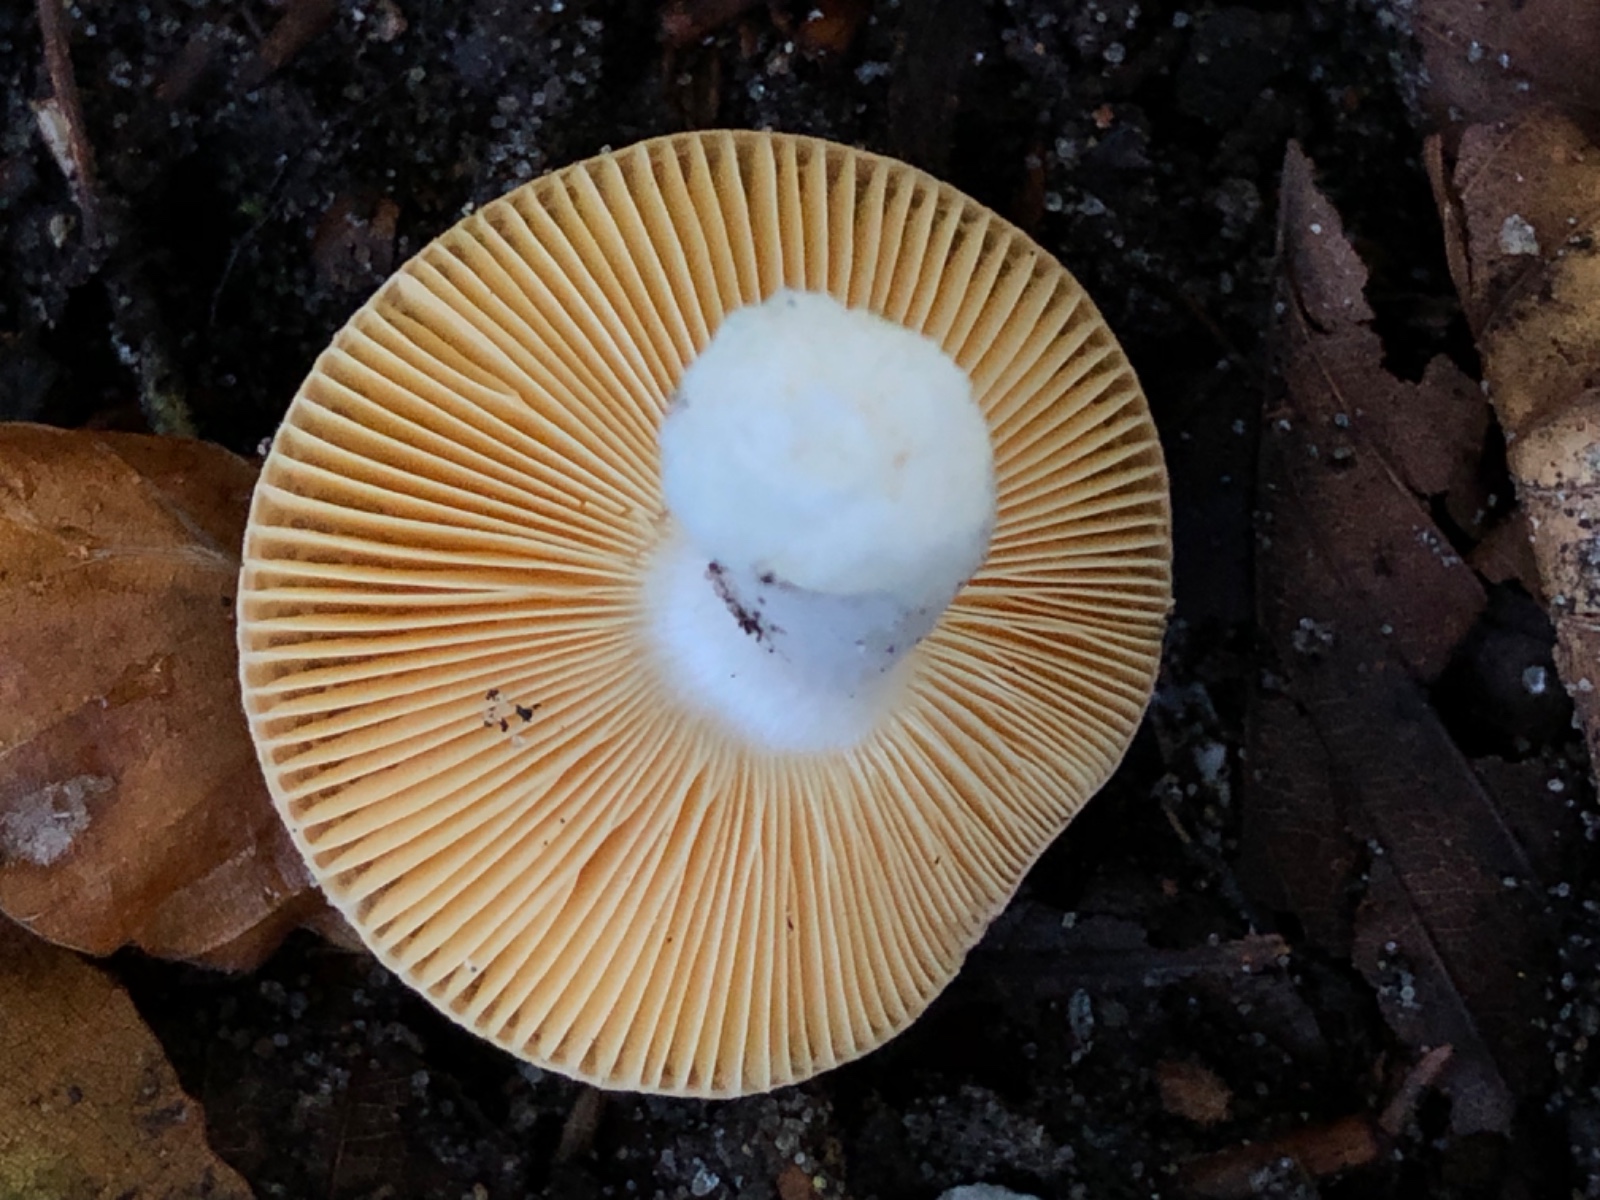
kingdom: Fungi
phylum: Basidiomycota
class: Agaricomycetes
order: Russulales
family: Russulaceae
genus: Russula
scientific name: Russula risigallina
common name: abrikos-skørhat
